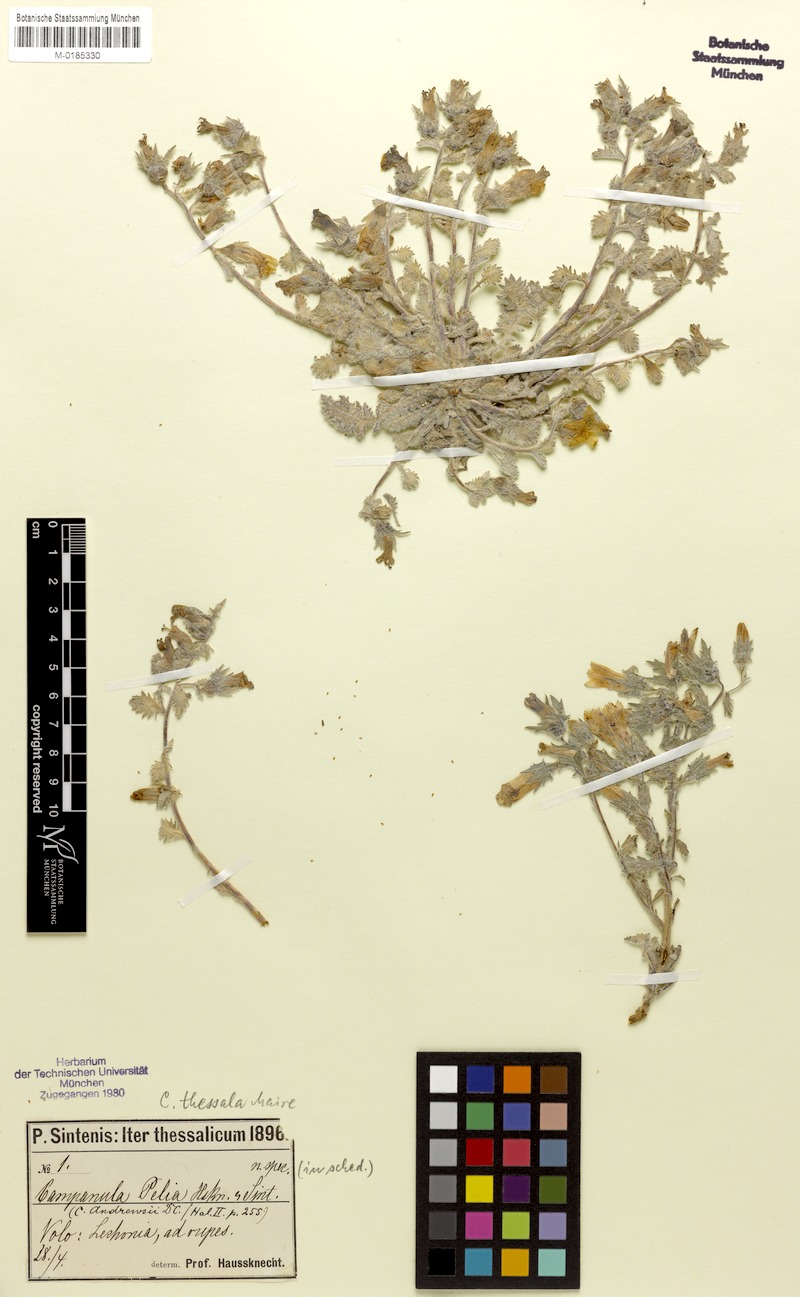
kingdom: Plantae
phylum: Tracheophyta
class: Magnoliopsida
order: Asterales
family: Campanulaceae
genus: Campanula
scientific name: Campanula pelia
